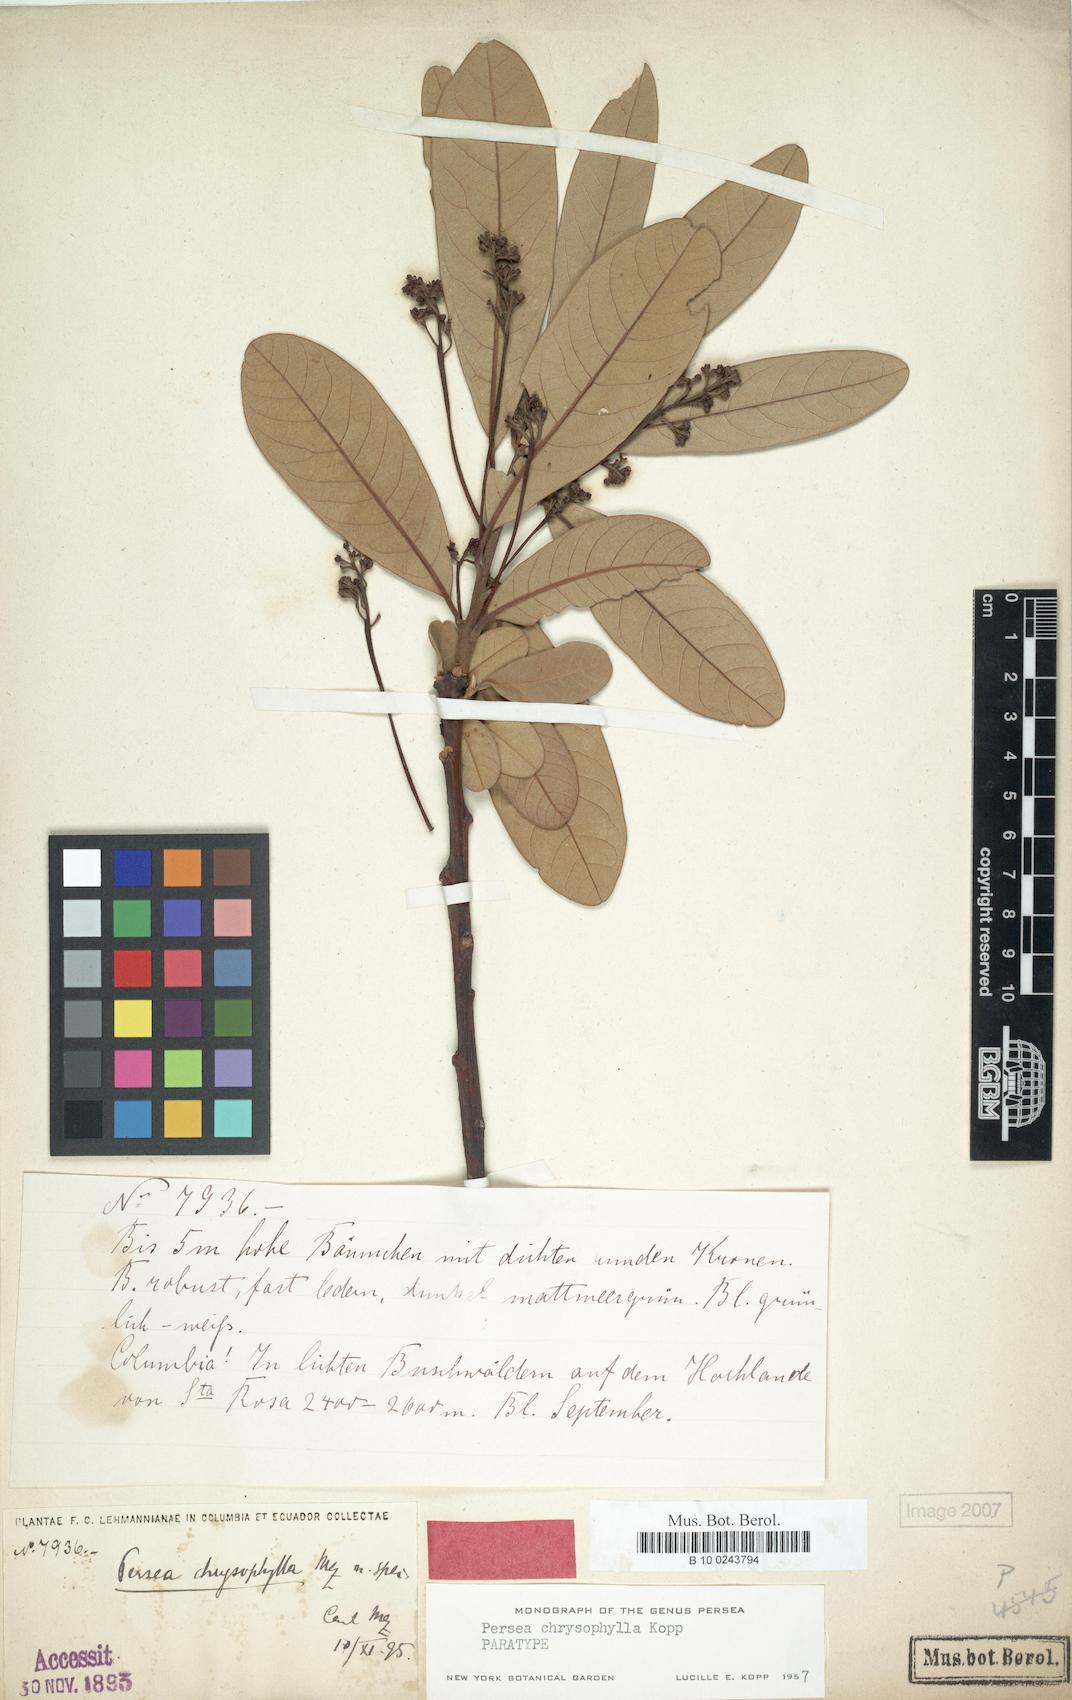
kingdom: Plantae
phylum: Tracheophyta
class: Magnoliopsida
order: Laurales
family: Lauraceae
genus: Persea
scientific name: Persea chrysophylla
